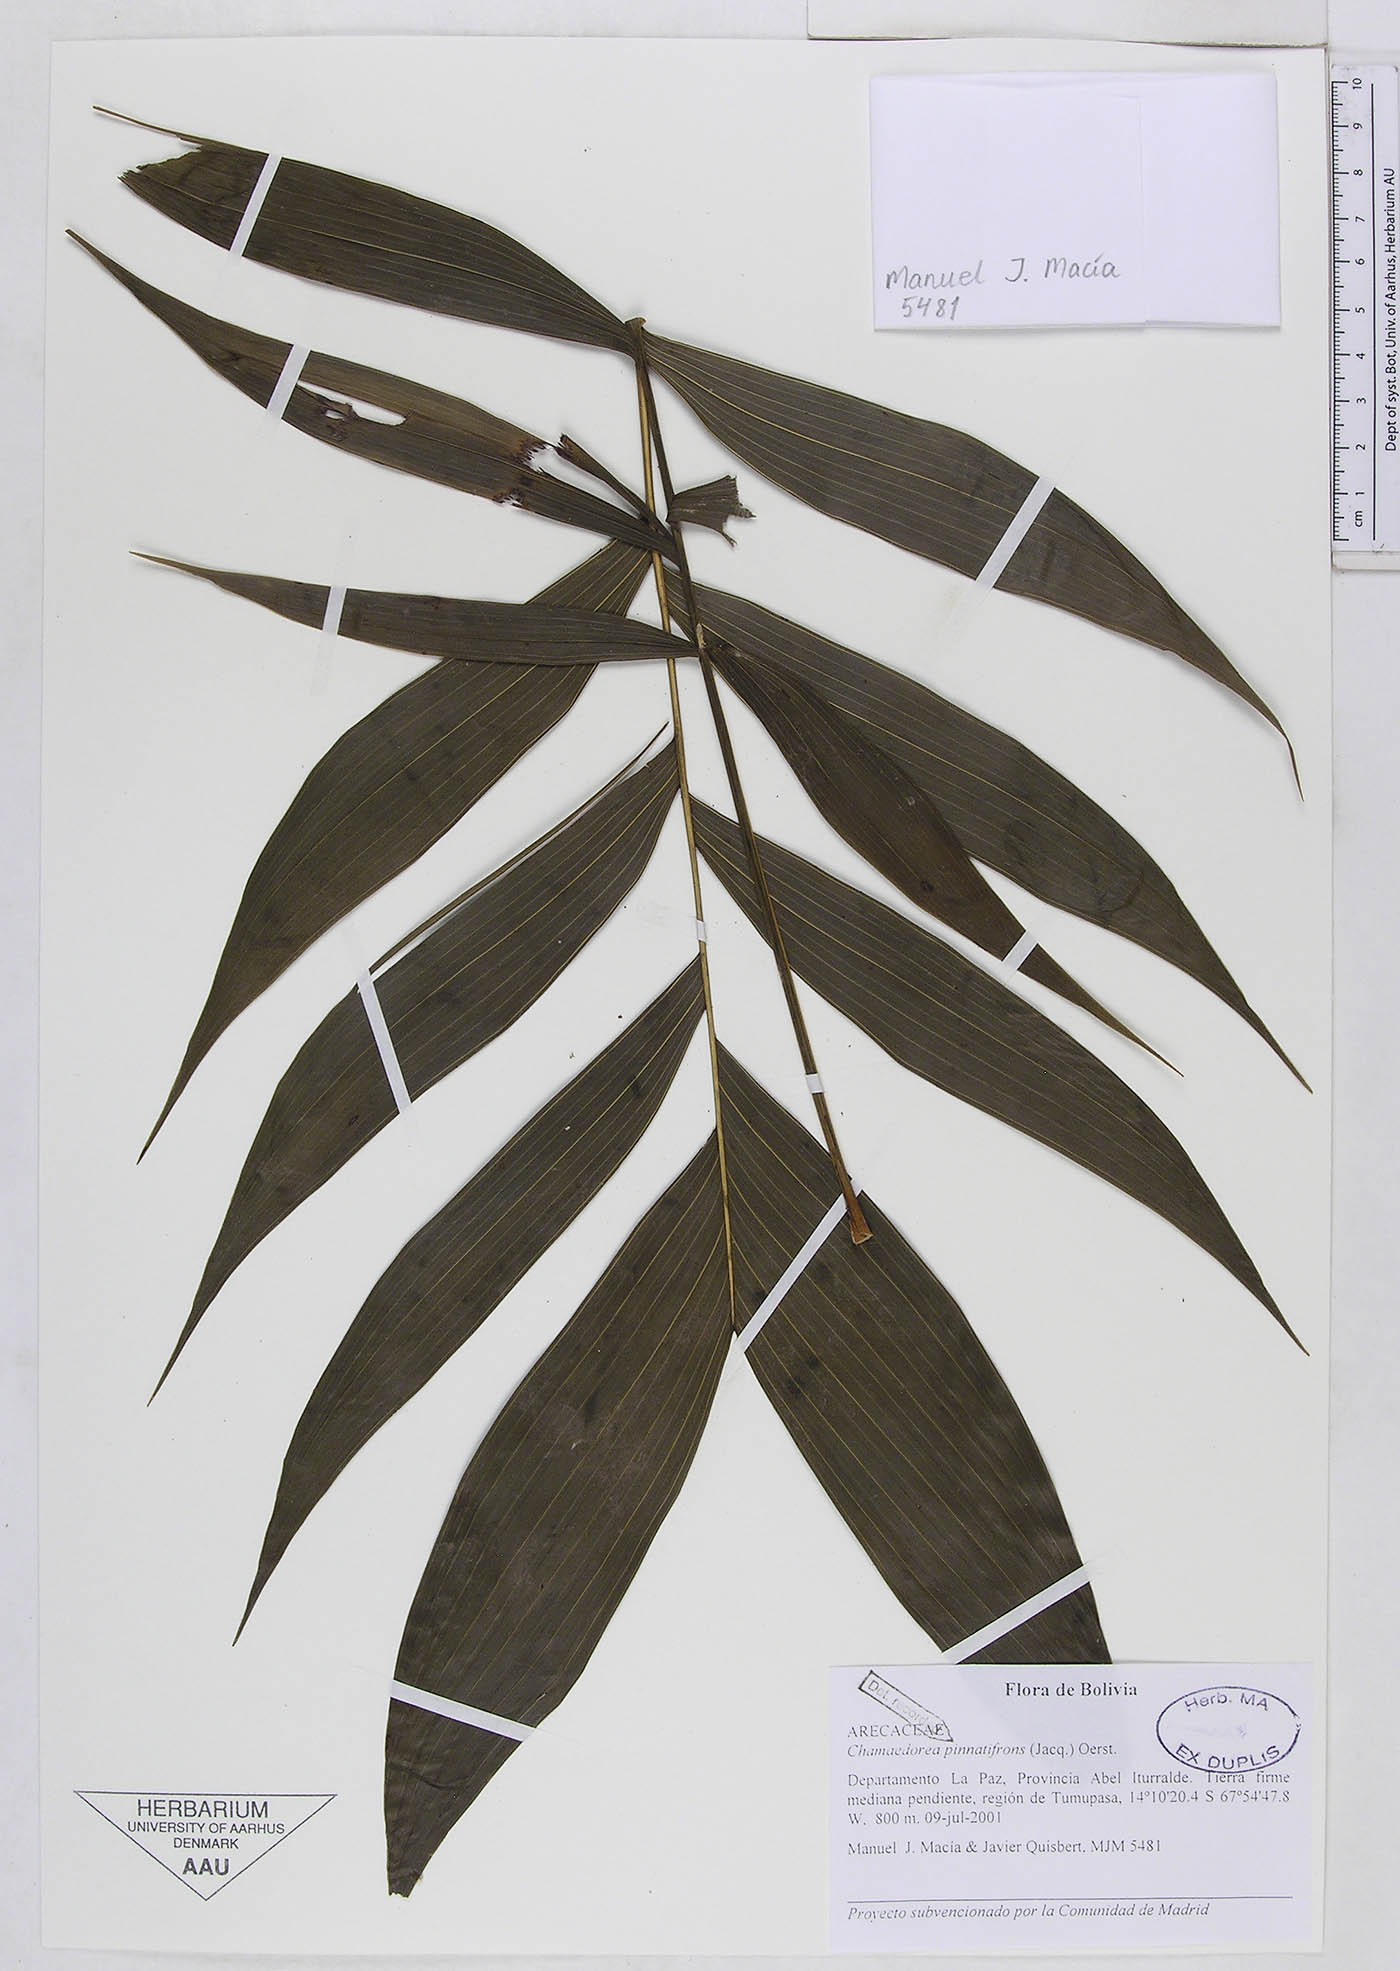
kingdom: Plantae
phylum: Tracheophyta
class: Liliopsida
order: Arecales
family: Arecaceae
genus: Chamaedorea
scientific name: Chamaedorea pinnatifrons
